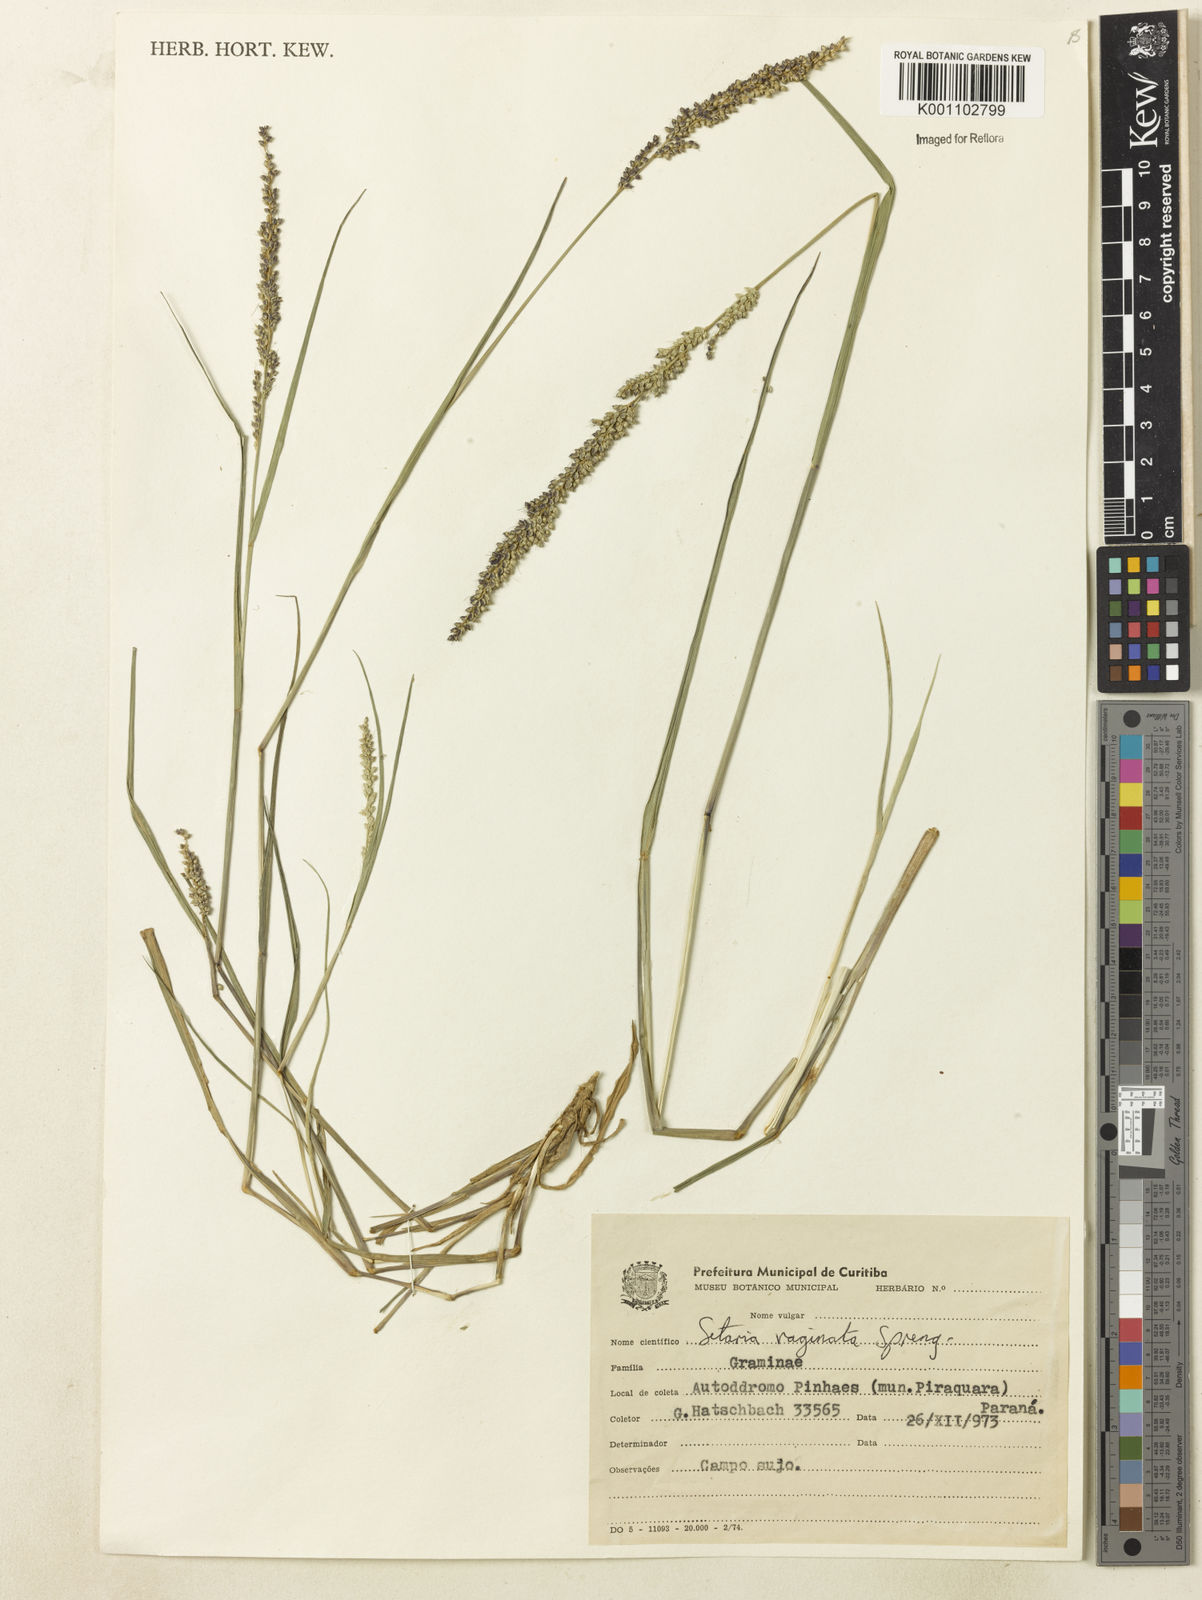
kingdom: Plantae
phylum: Tracheophyta
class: Liliopsida
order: Poales
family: Poaceae
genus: Setaria
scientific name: Setaria setosa
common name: West indies bristle grass
